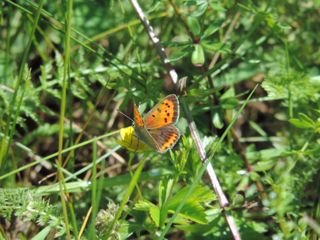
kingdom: Animalia
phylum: Arthropoda
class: Insecta
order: Lepidoptera
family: Lycaenidae
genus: Lycaena
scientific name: Lycaena phlaeas
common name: American Copper
